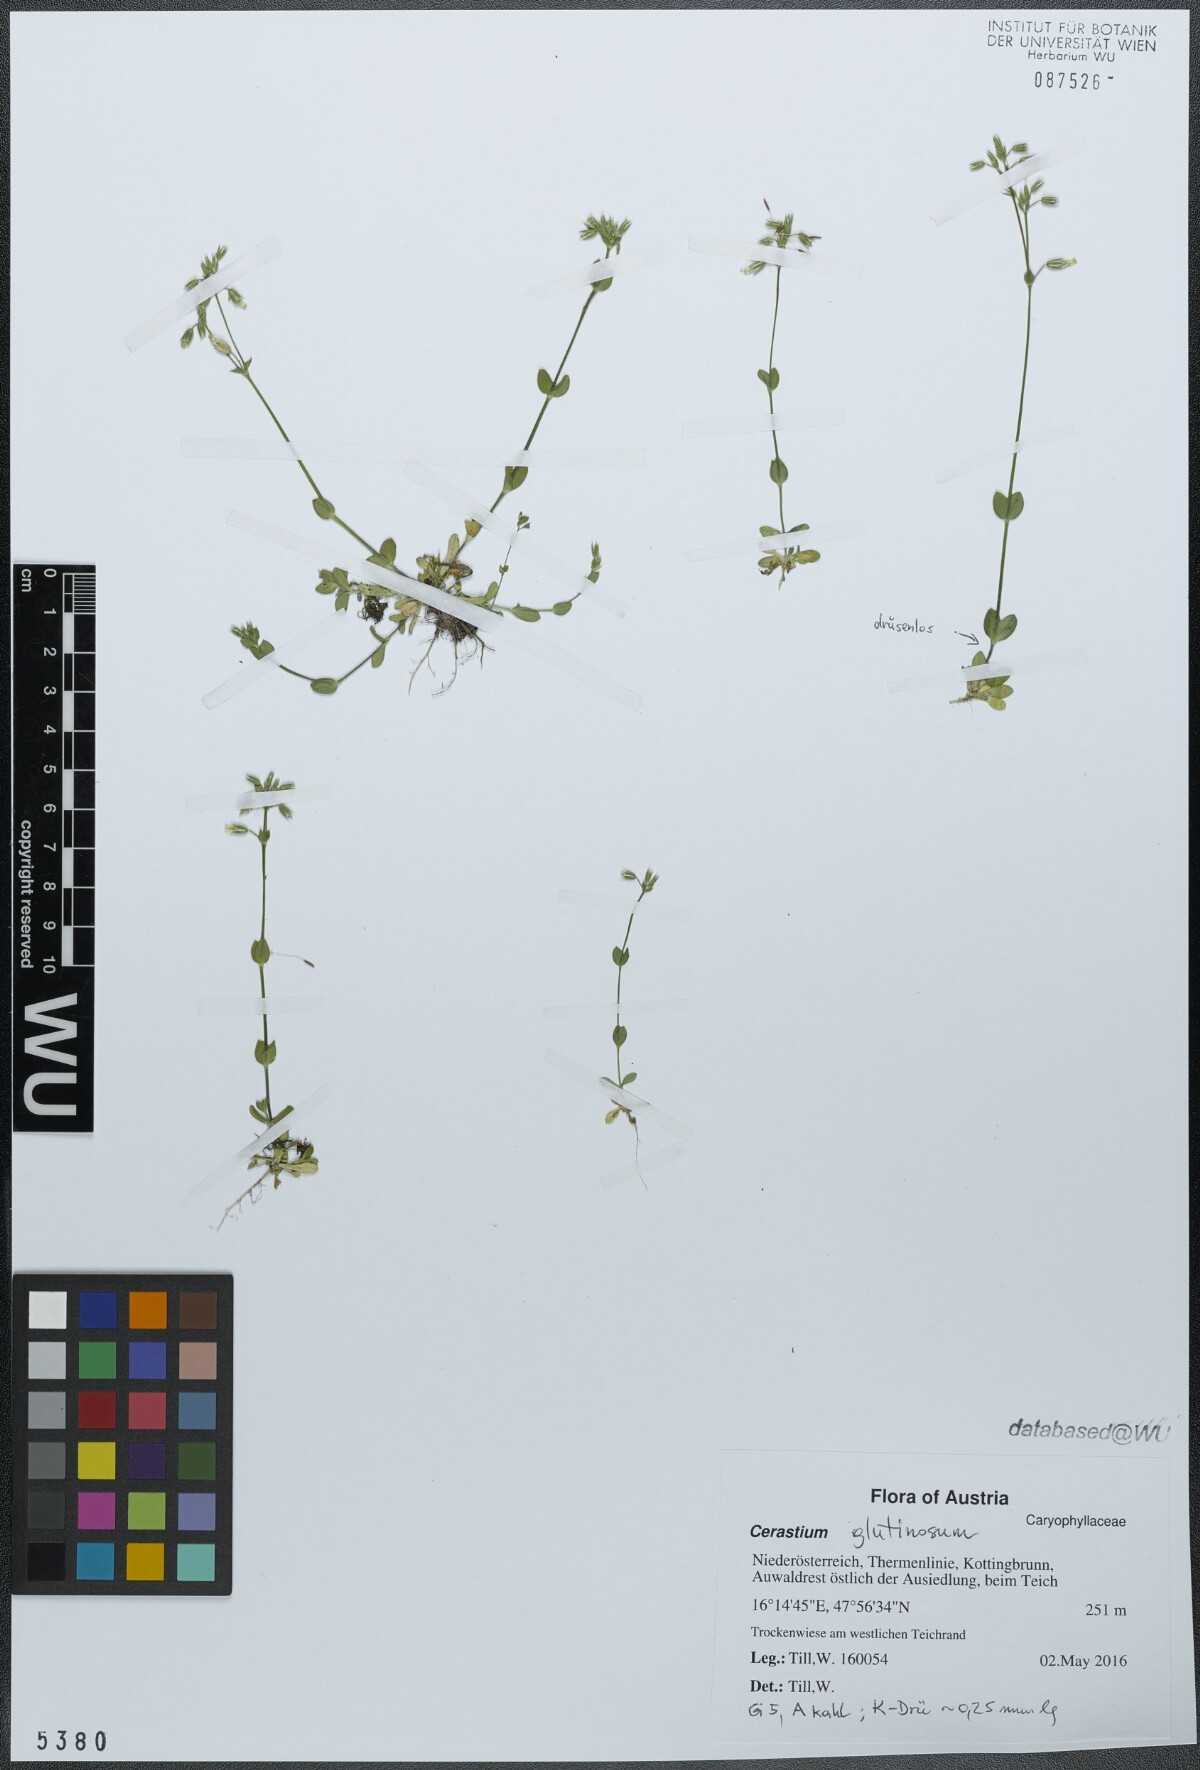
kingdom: Plantae
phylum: Tracheophyta
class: Magnoliopsida
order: Caryophyllales
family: Caryophyllaceae
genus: Cerastium
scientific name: Cerastium glutinosum
